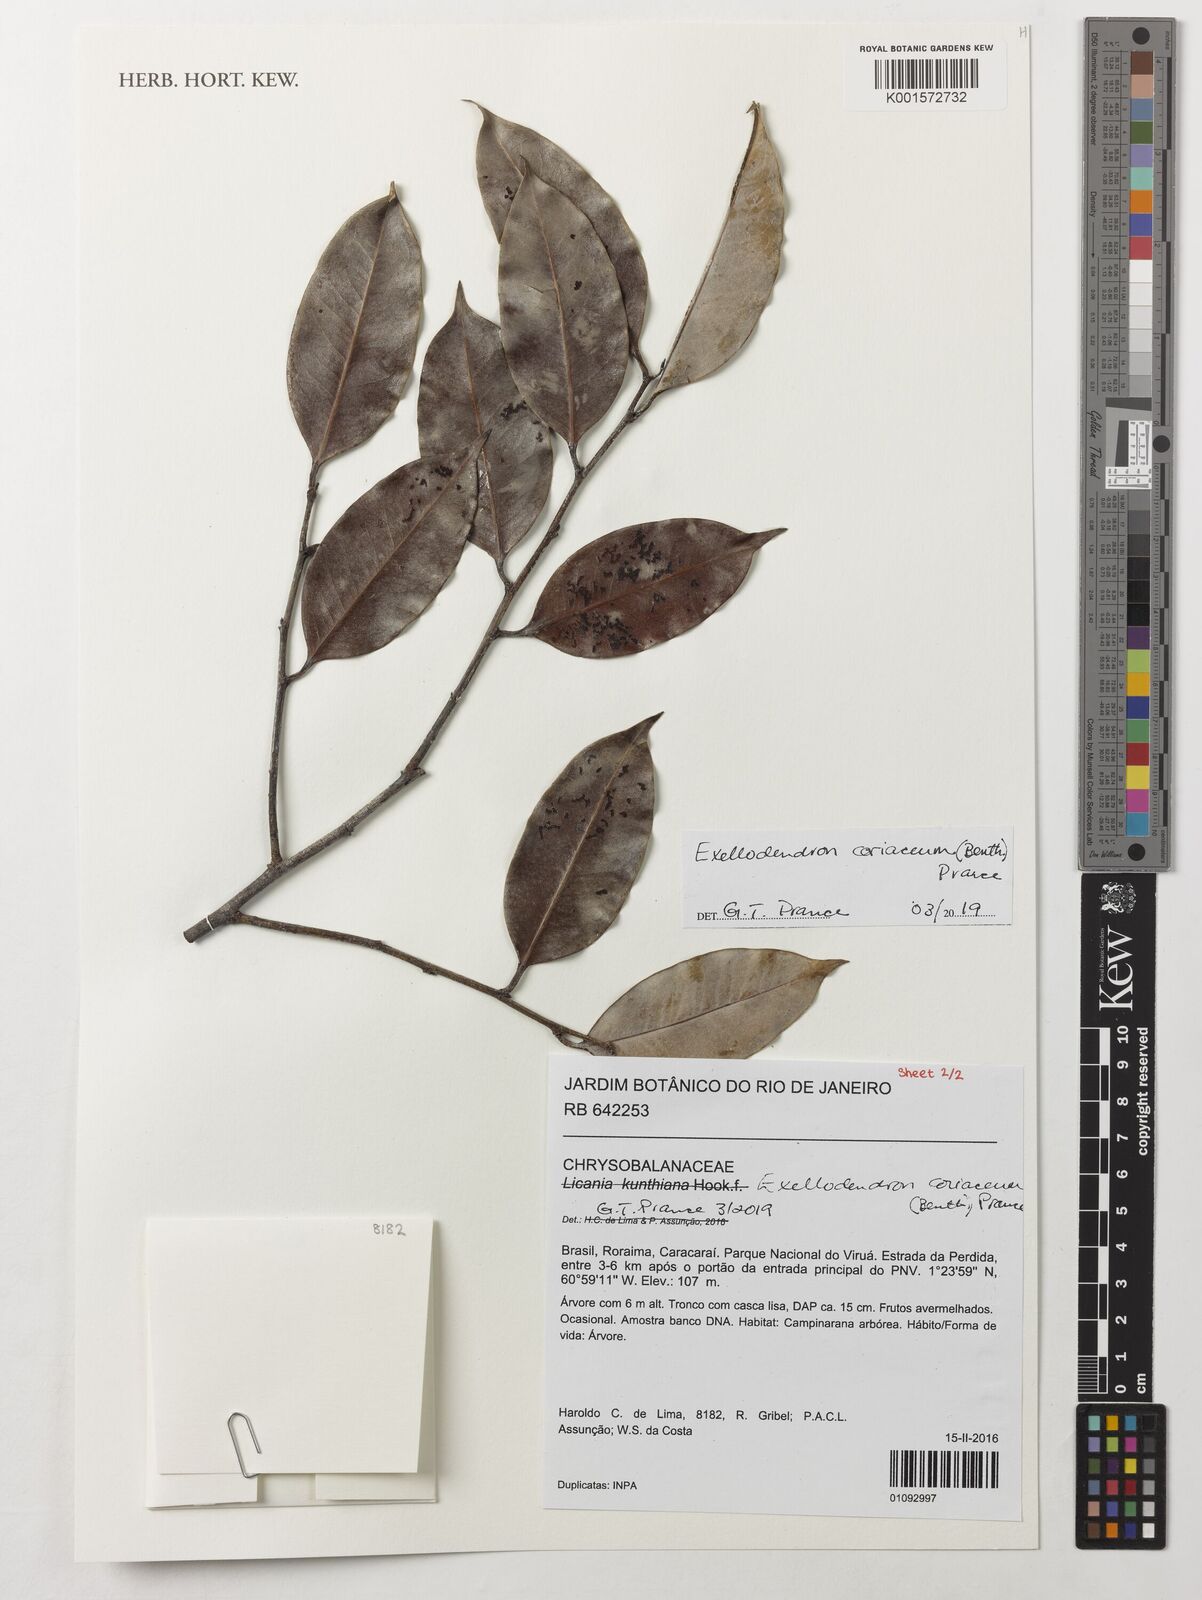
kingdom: Plantae
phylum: Tracheophyta
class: Magnoliopsida
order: Malpighiales
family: Chrysobalanaceae
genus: Exellodendron
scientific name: Exellodendron coriaceum
